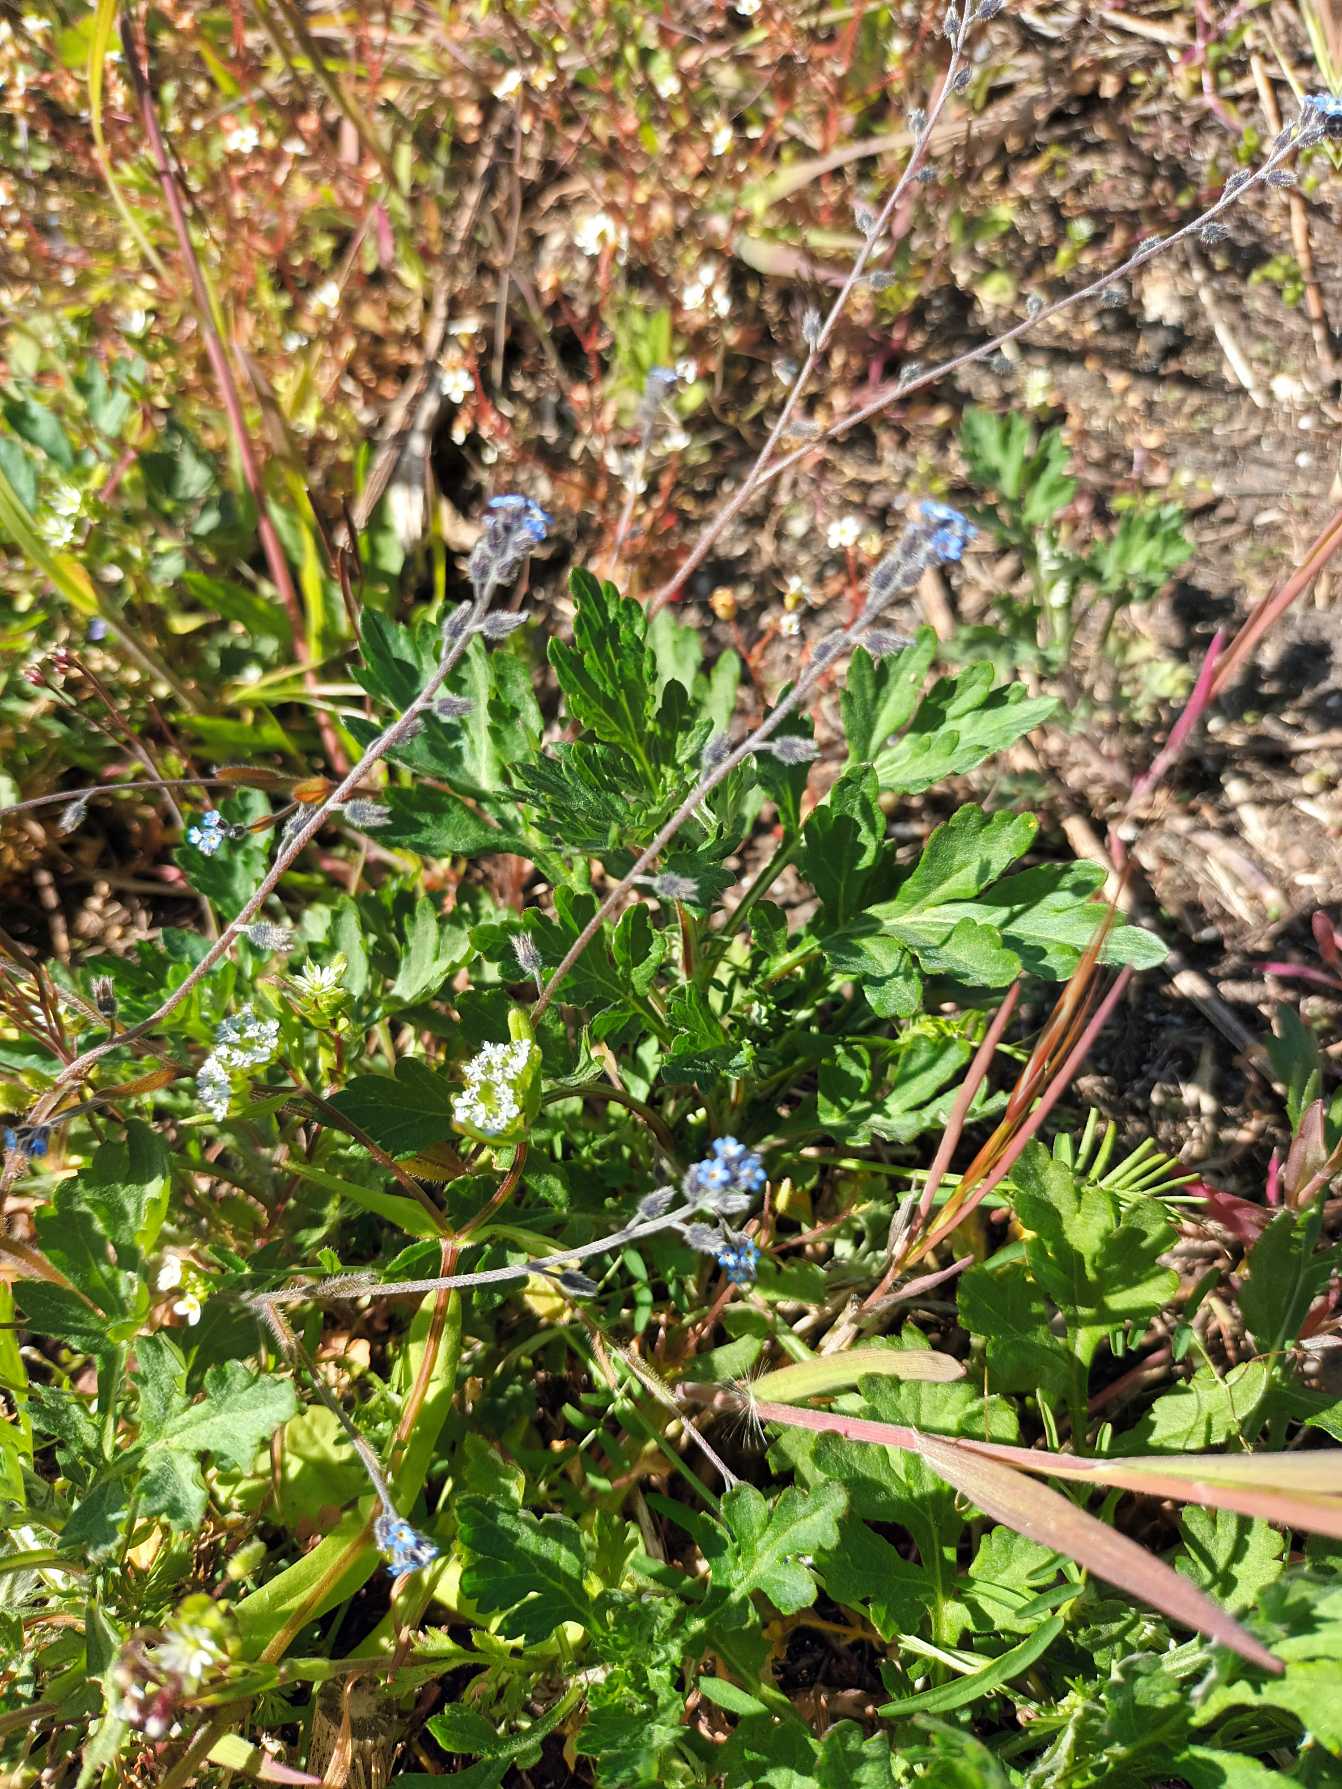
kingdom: Plantae
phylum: Tracheophyta
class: Magnoliopsida
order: Boraginales
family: Boraginaceae
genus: Myosotis
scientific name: Myosotis ramosissima
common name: Bakke-forglemmigej
